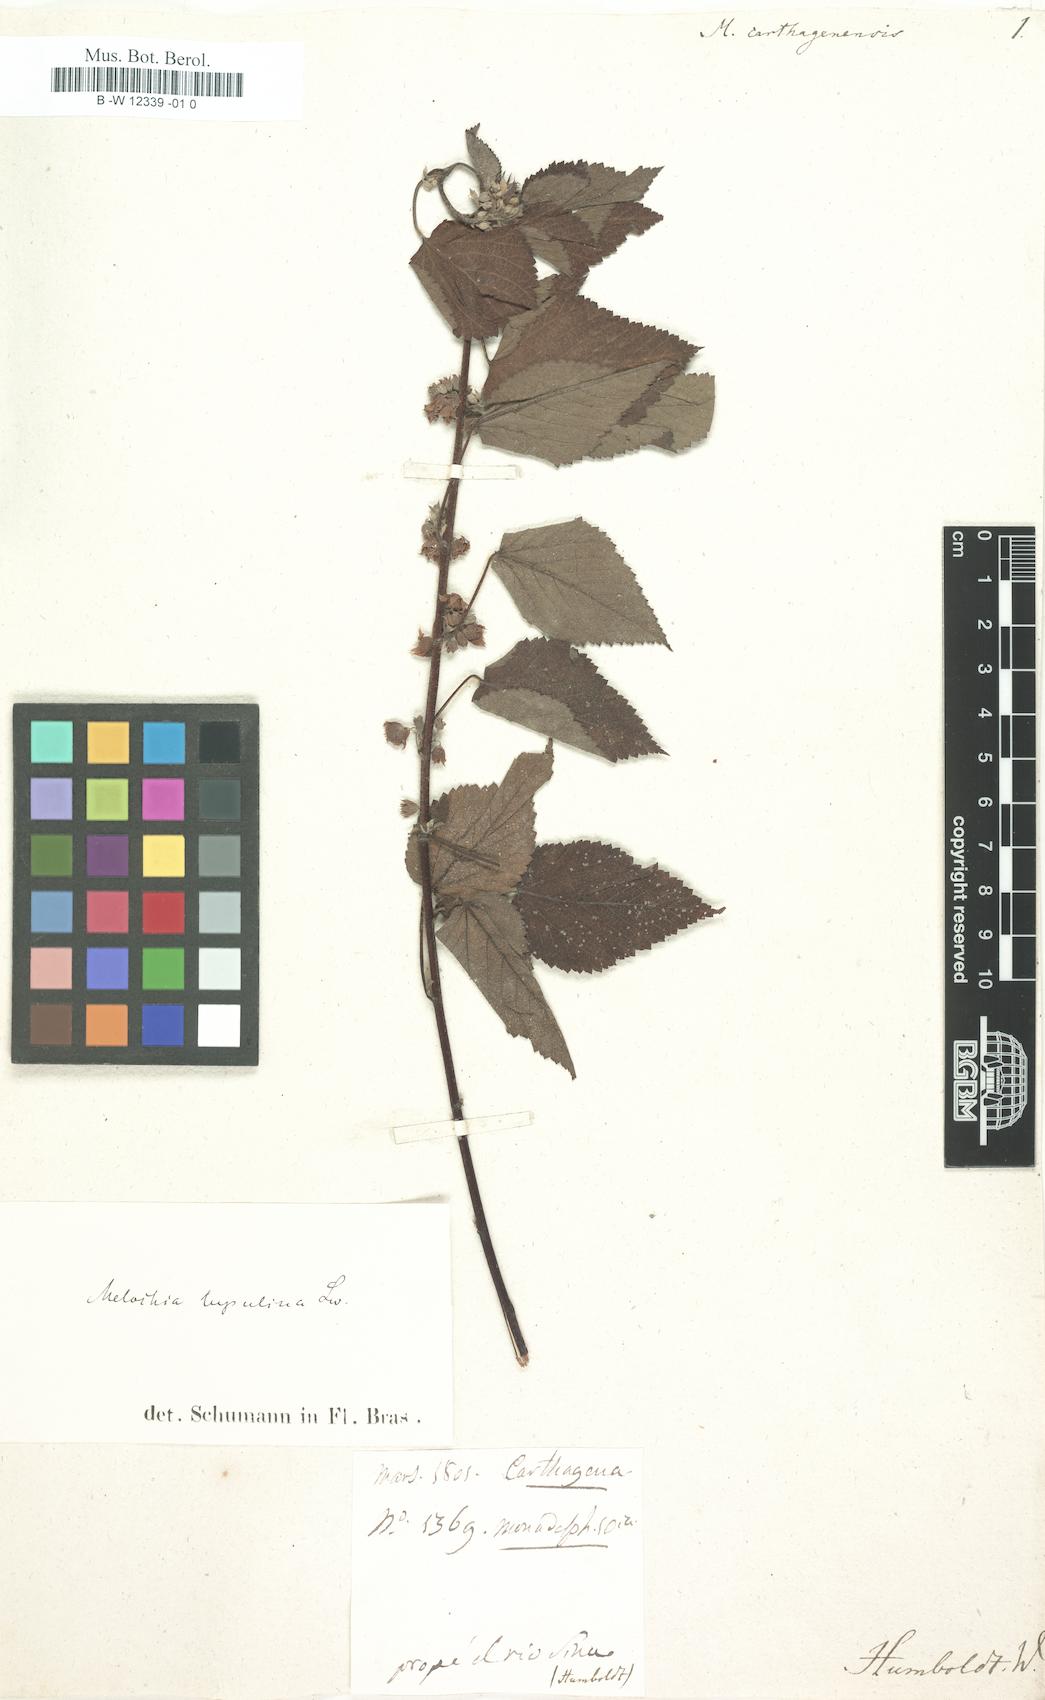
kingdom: Plantae
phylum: Tracheophyta
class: Magnoliopsida
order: Malvales
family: Malvaceae
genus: Melochia
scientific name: Melochia carthaginensis
